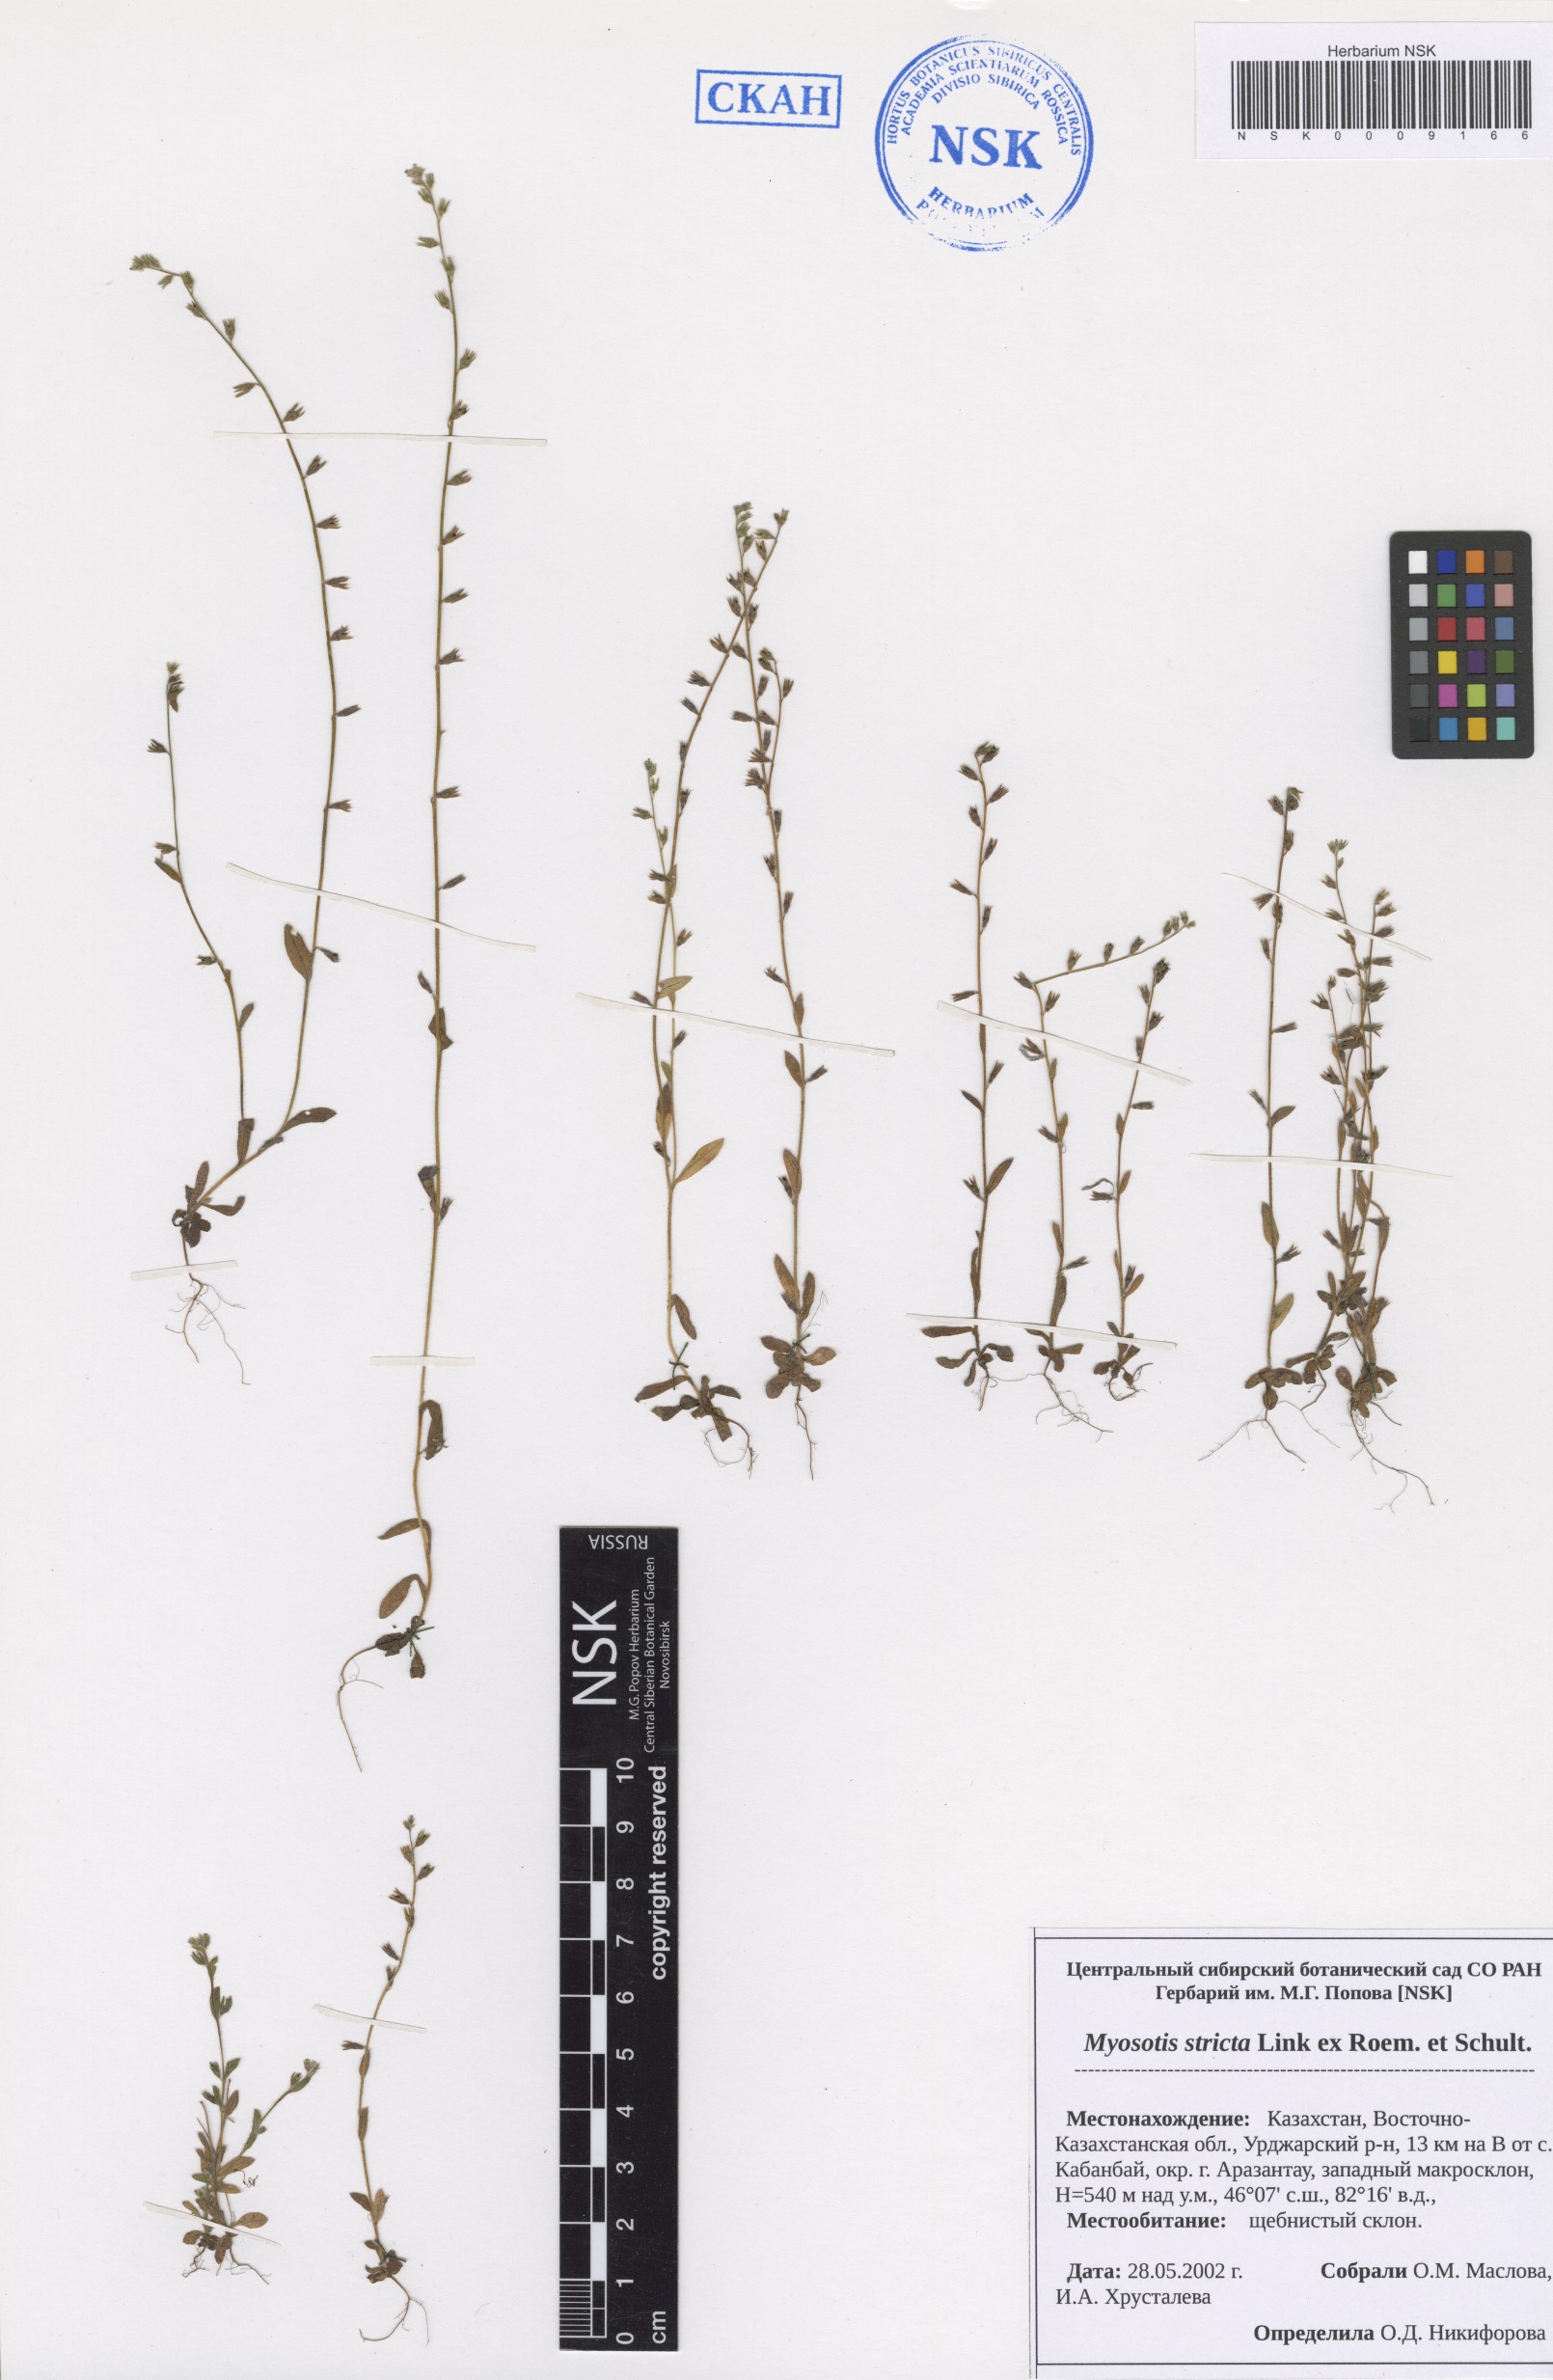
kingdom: Plantae
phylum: Tracheophyta
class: Magnoliopsida
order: Boraginales
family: Boraginaceae
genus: Myosotis
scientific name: Myosotis stricta
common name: Strict forget-me-not
